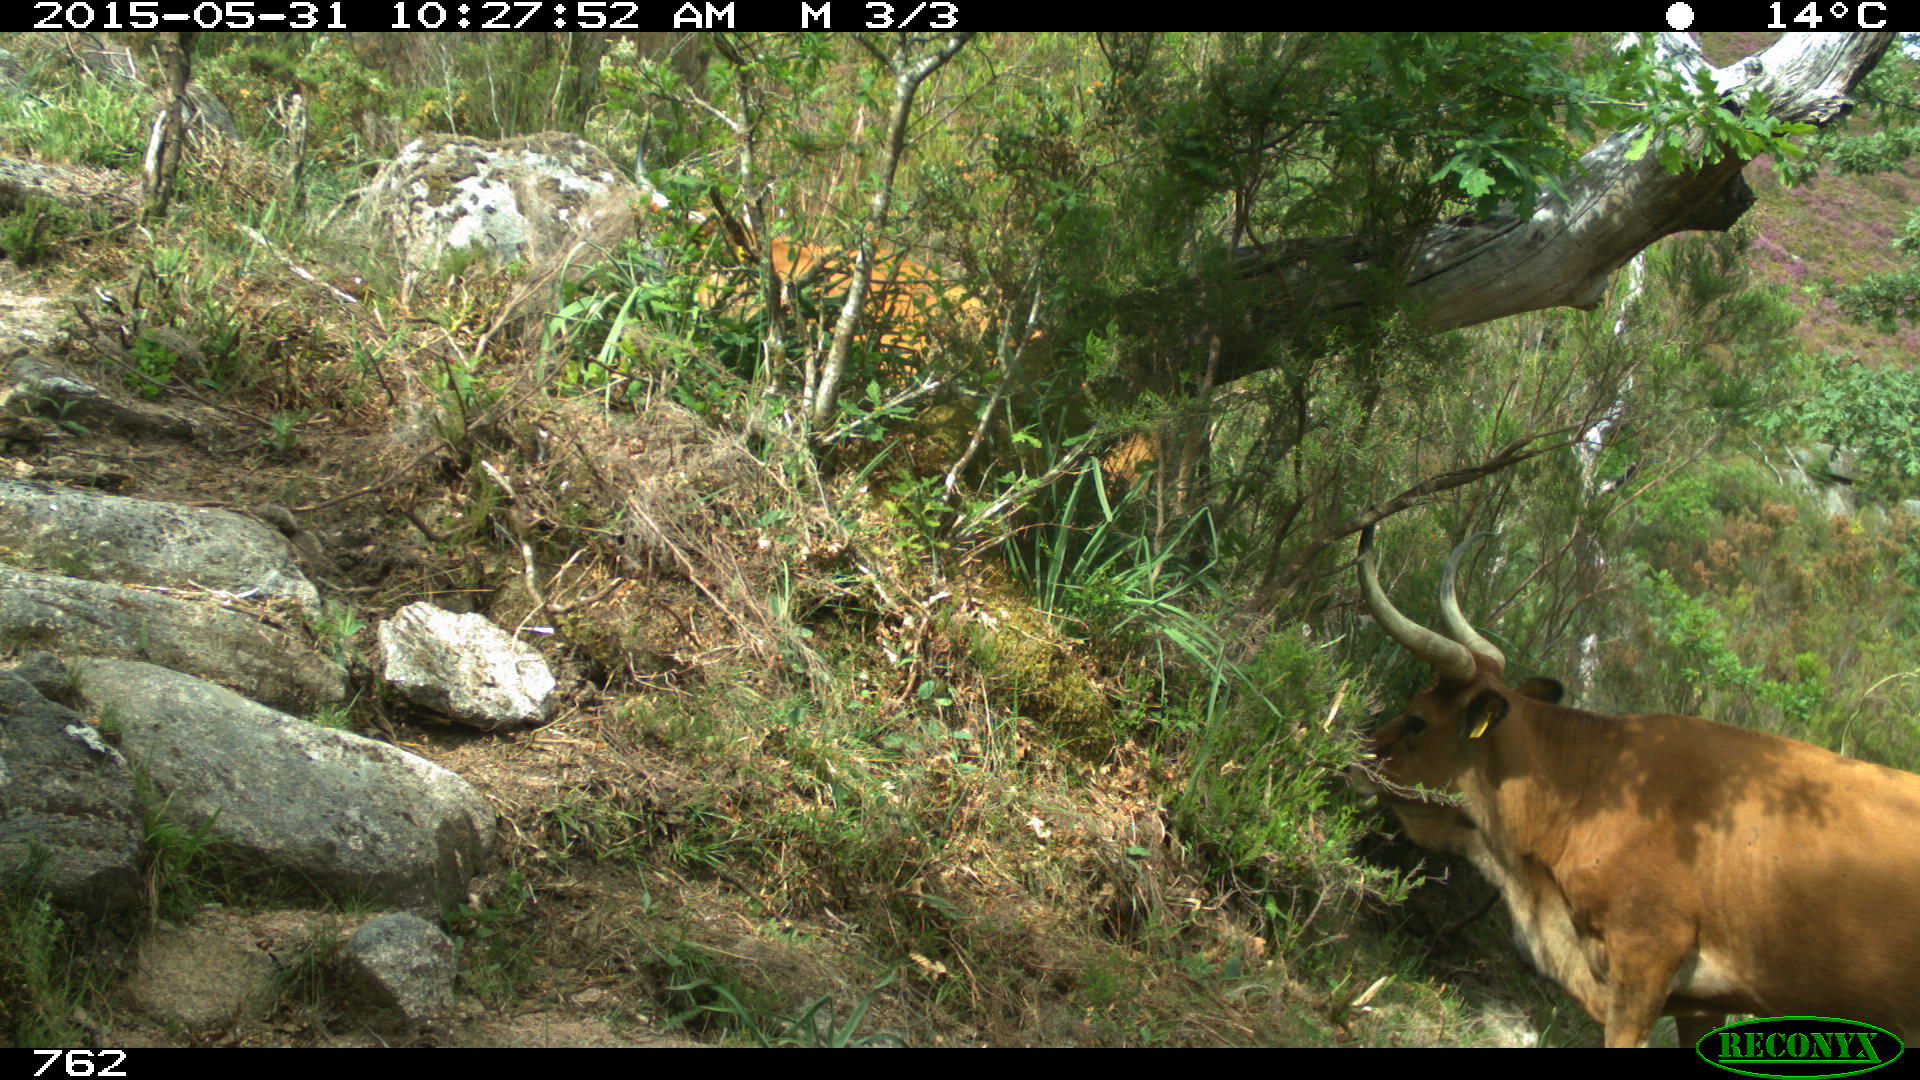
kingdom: Animalia
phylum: Chordata
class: Mammalia
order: Artiodactyla
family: Bovidae
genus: Bos
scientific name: Bos taurus
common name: Domesticated cattle
